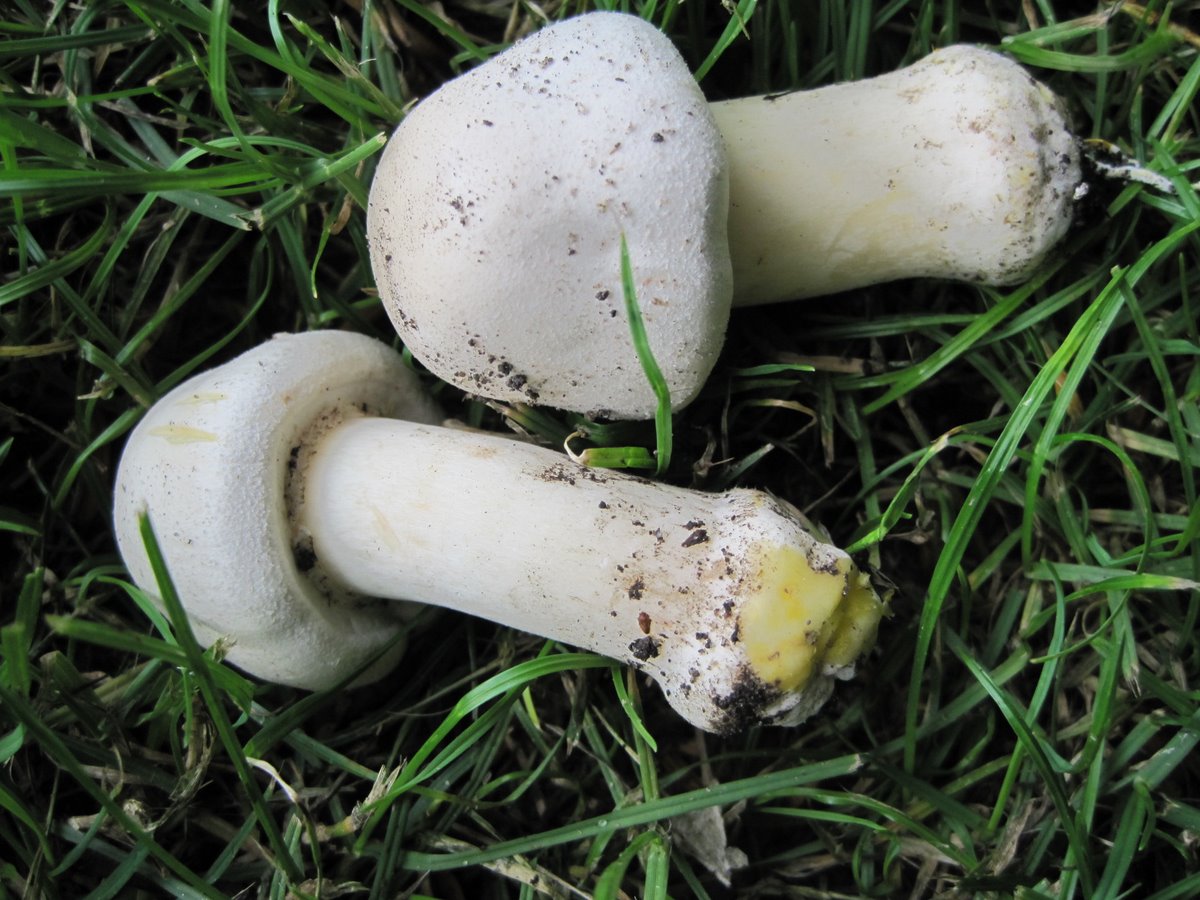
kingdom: Fungi
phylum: Basidiomycota
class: Agaricomycetes
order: Agaricales
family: Agaricaceae
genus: Agaricus
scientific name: Agaricus xanthodermus
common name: karbol-champignon
